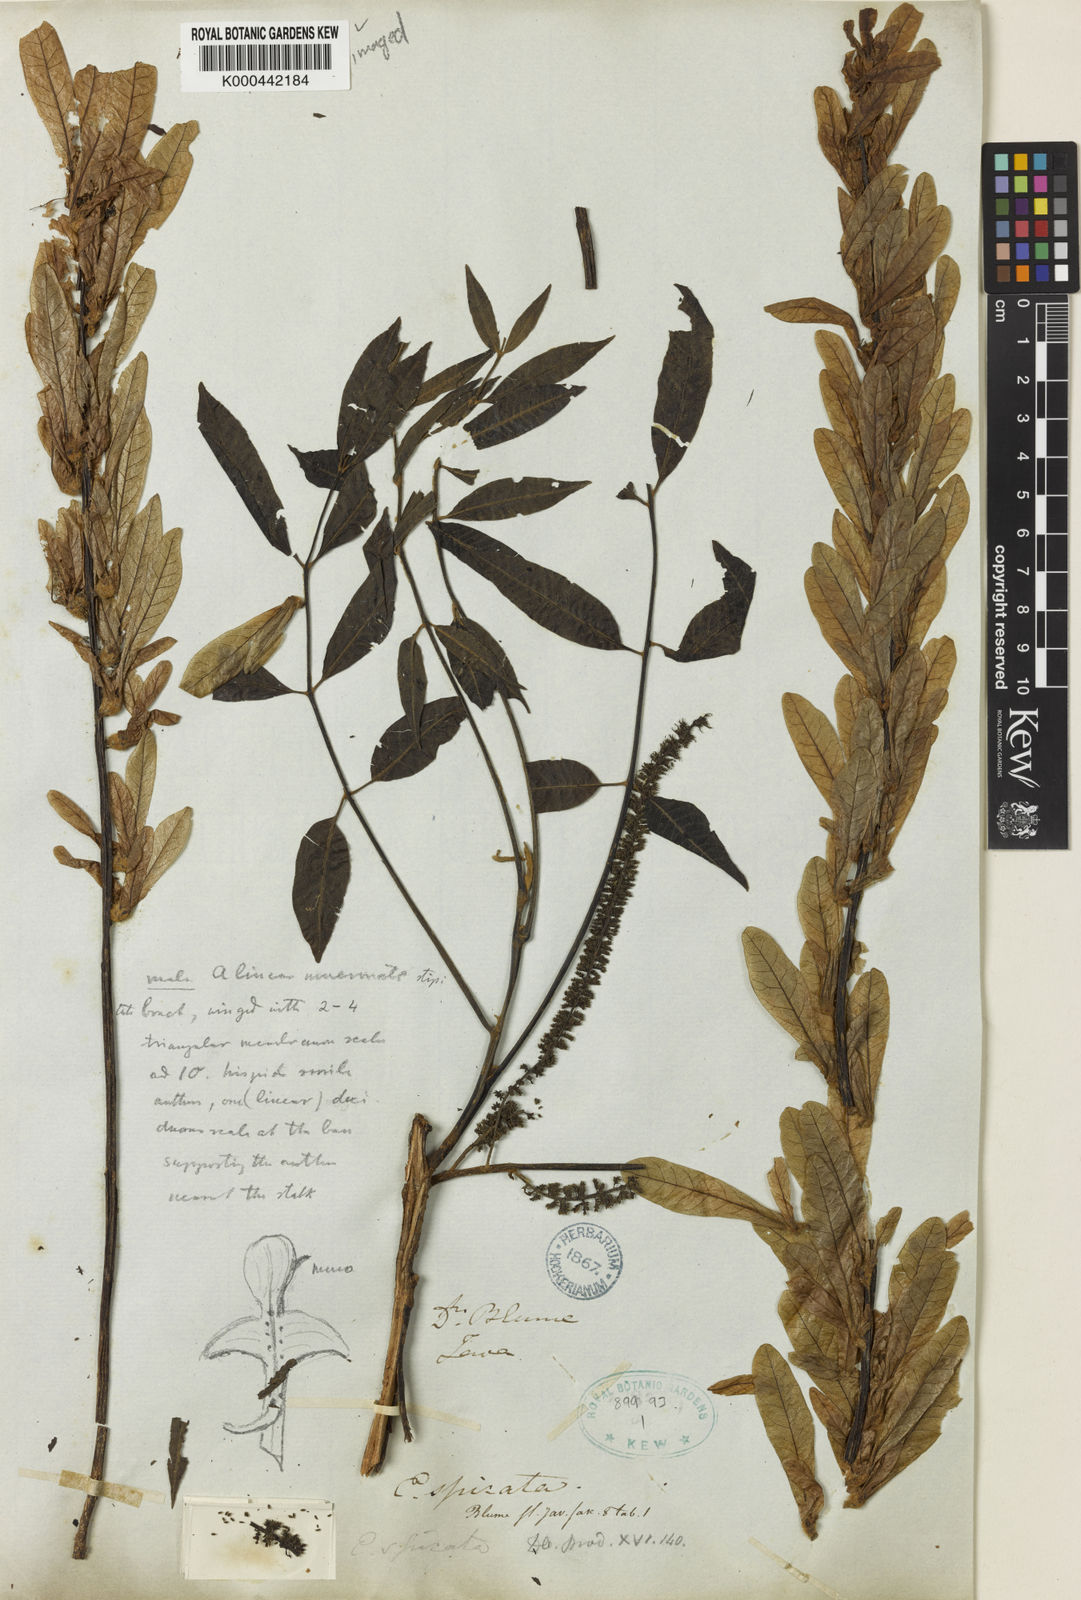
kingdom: Plantae
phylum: Tracheophyta
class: Magnoliopsida
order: Fagales
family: Juglandaceae
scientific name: Juglandaceae
